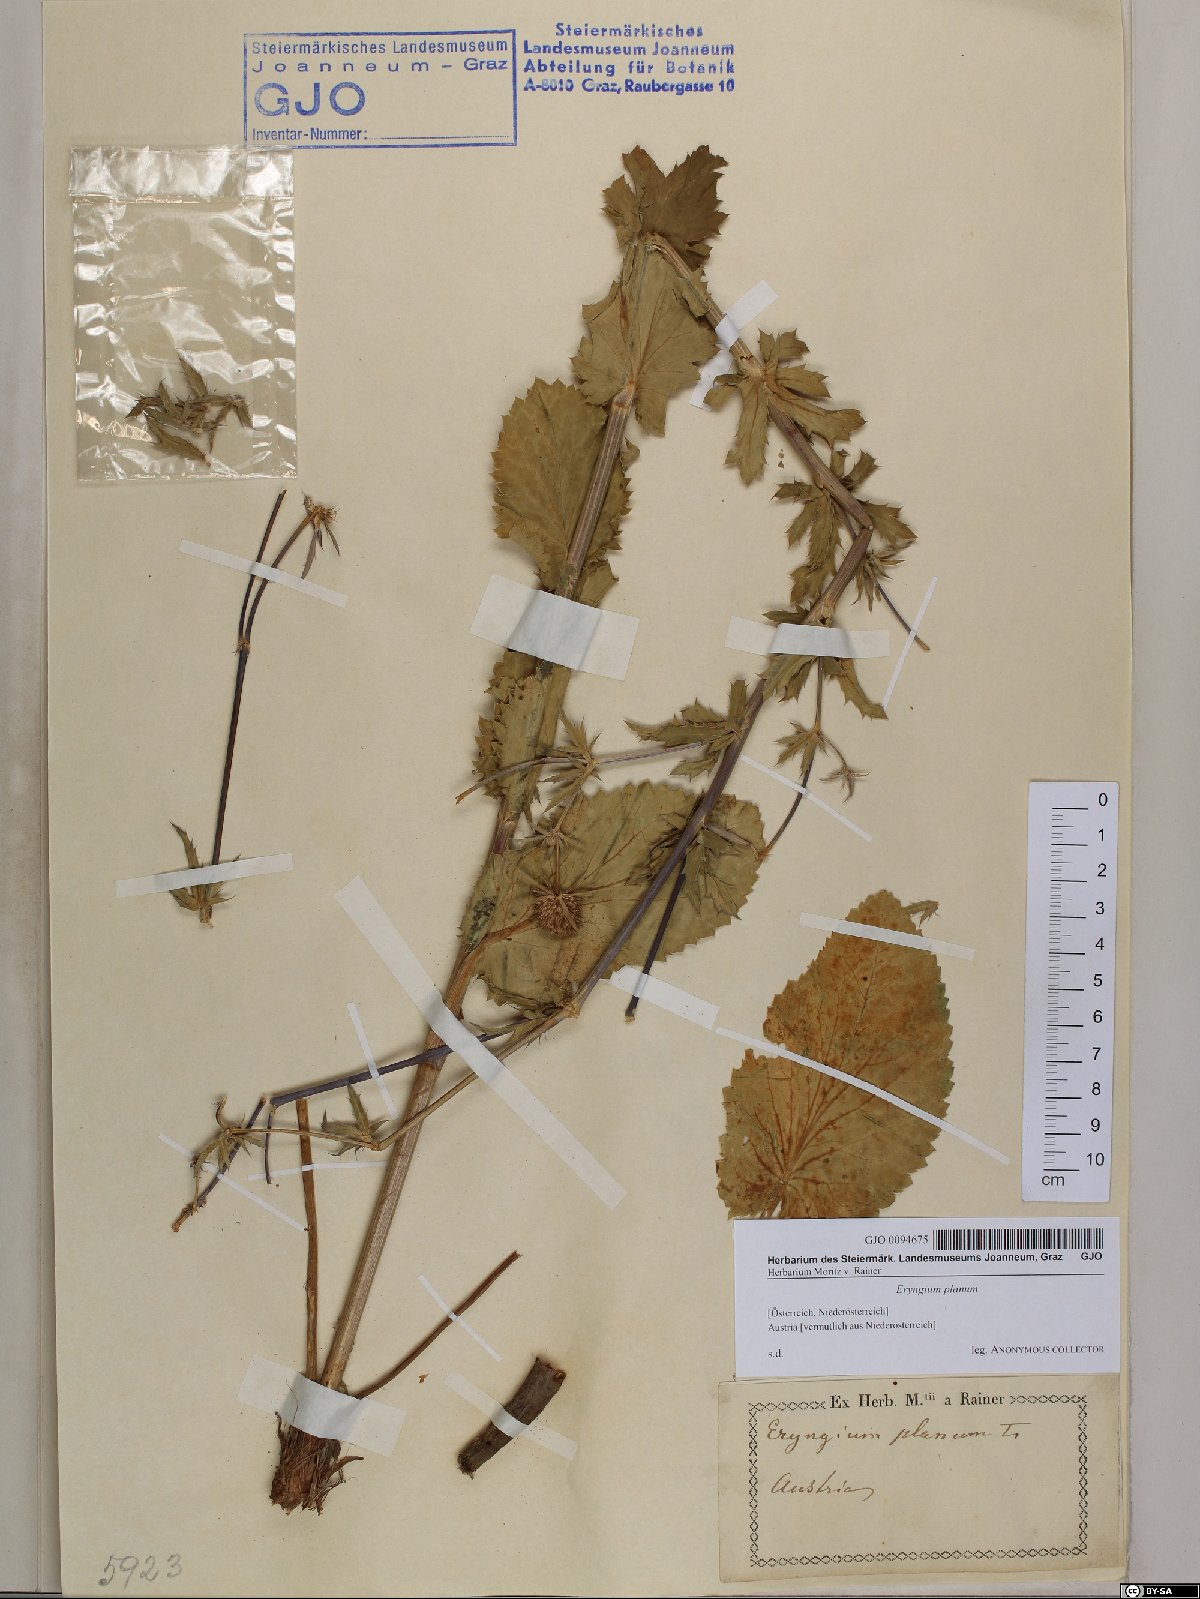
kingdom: Plantae
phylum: Tracheophyta
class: Magnoliopsida
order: Apiales
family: Apiaceae
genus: Eryngium
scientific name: Eryngium planum
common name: Blue eryngo
